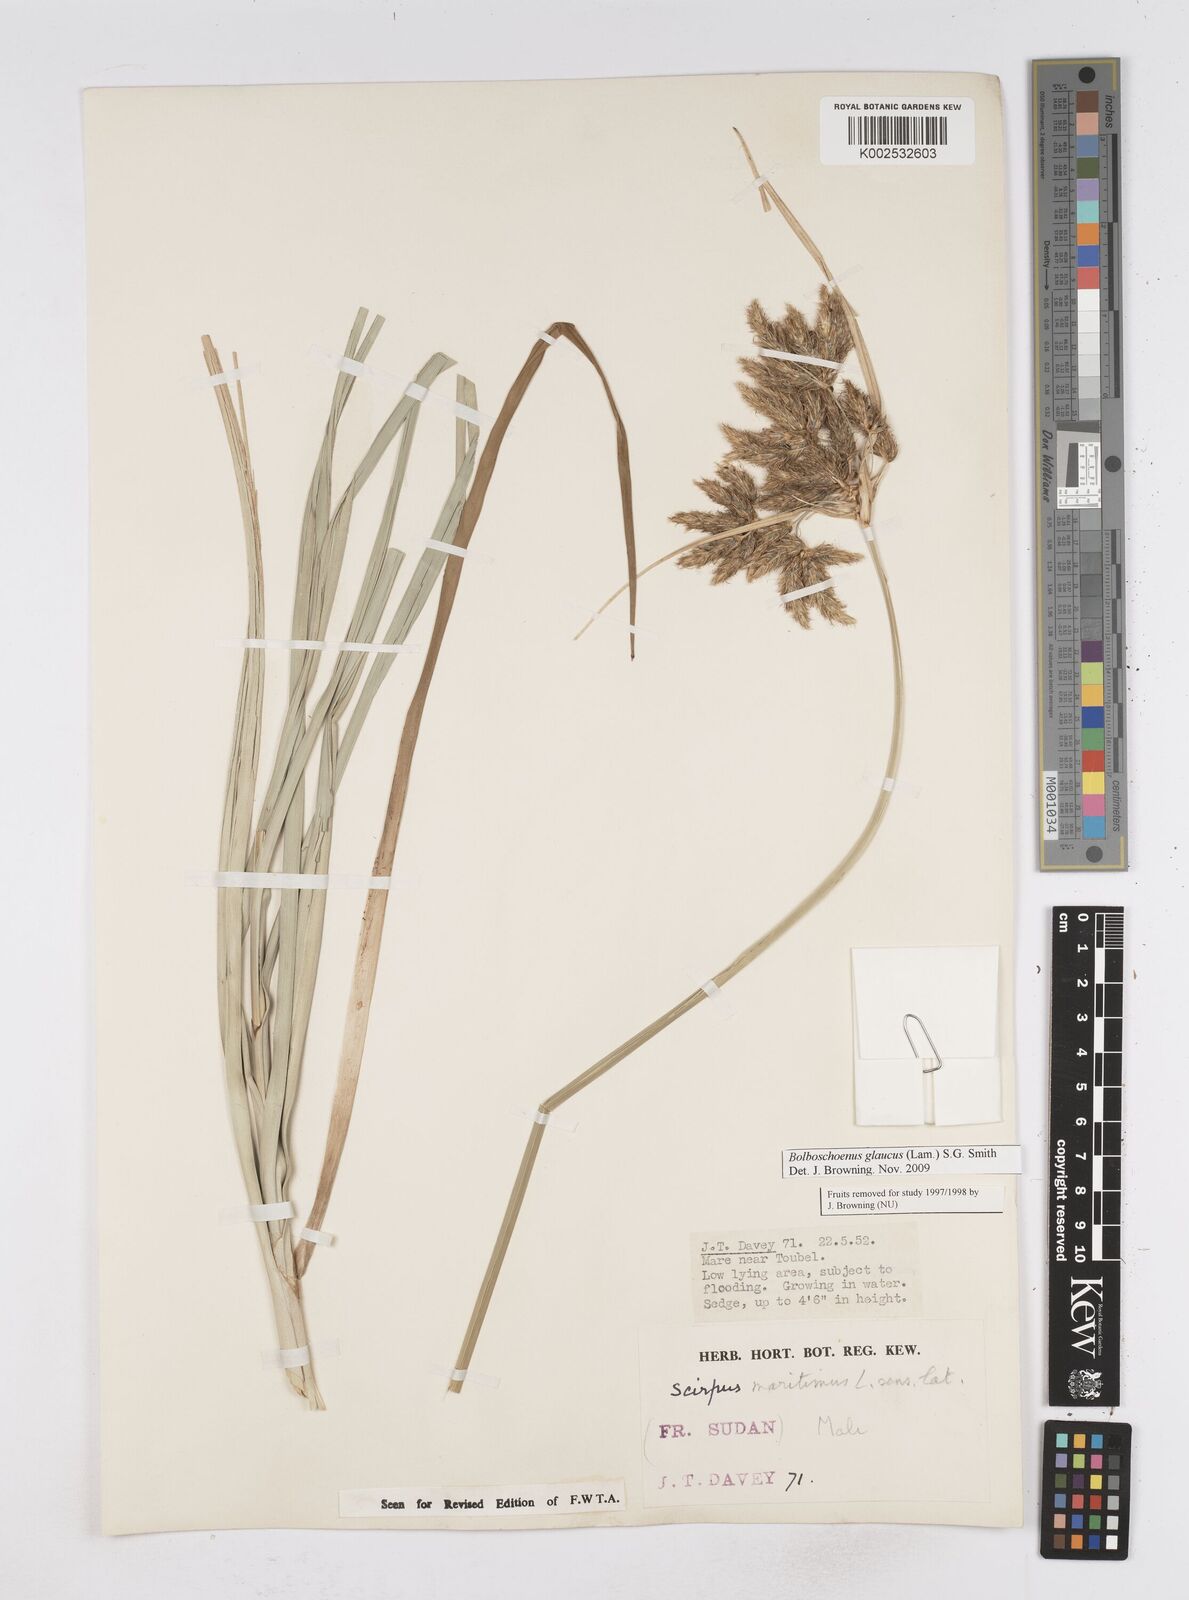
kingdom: Plantae
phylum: Tracheophyta
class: Liliopsida
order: Poales
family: Cyperaceae
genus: Bolboschoenus
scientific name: Bolboschoenus glaucus
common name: Tuberous bulrush
